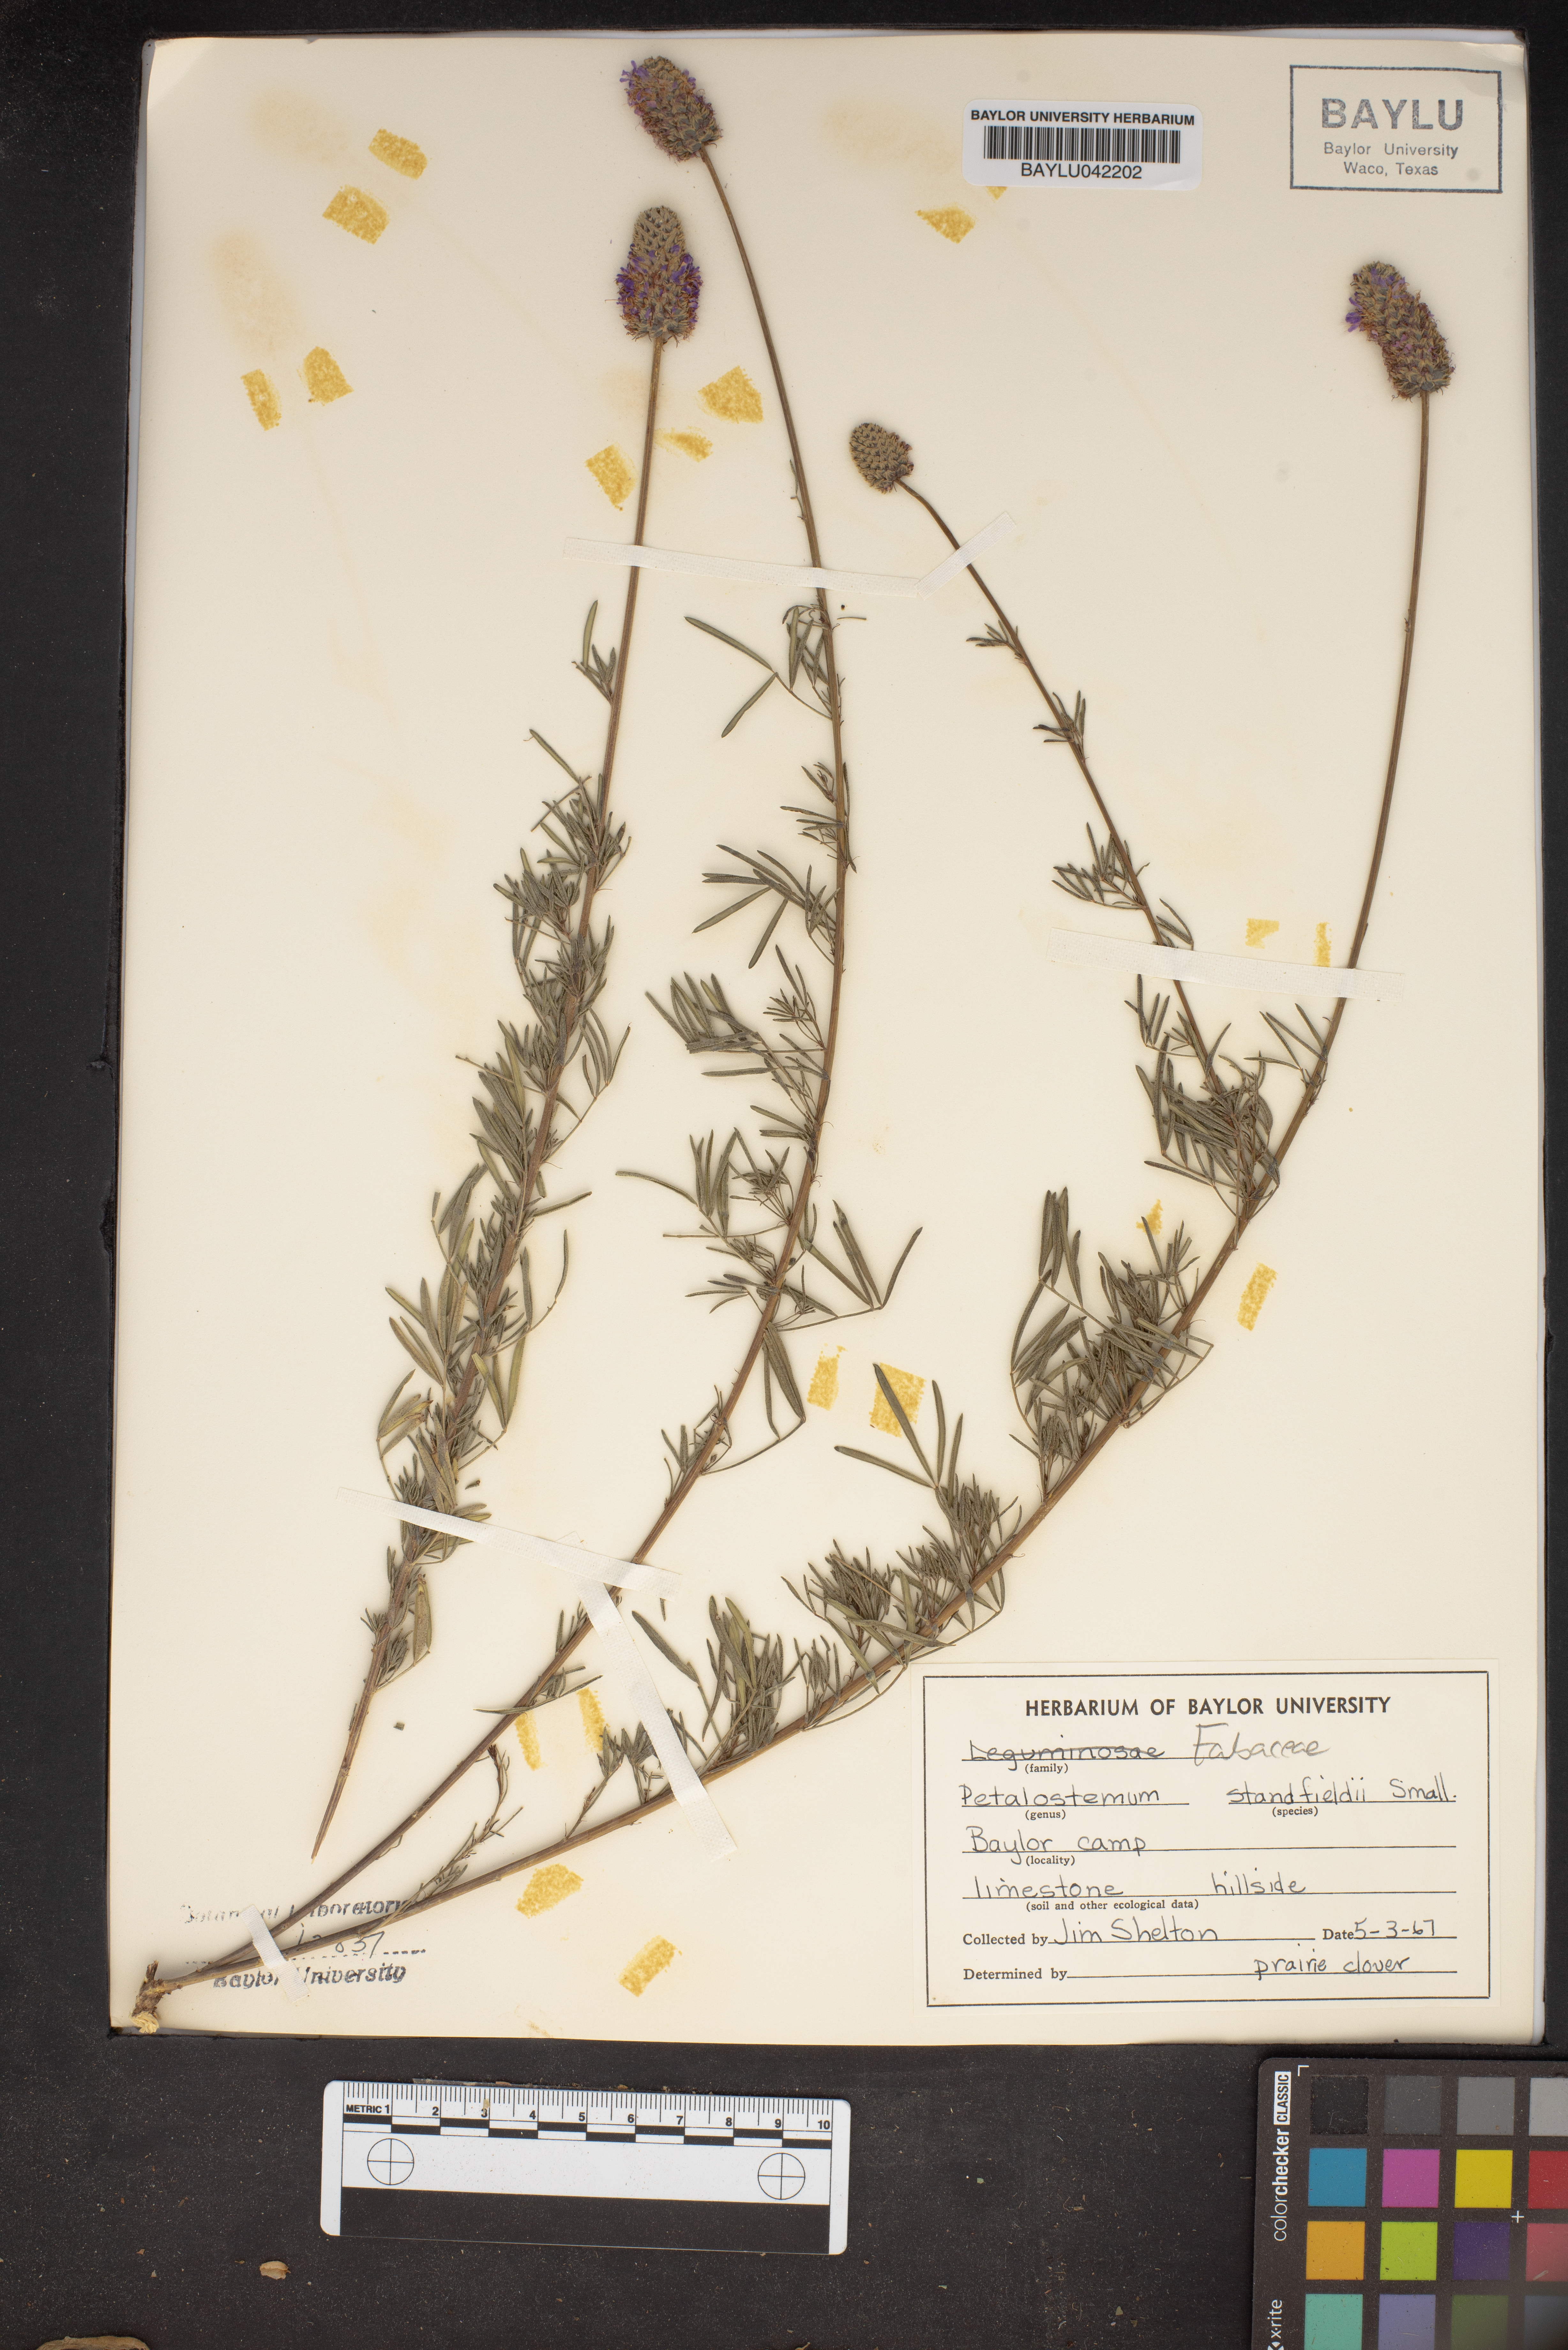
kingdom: Plantae
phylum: Tracheophyta
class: Magnoliopsida
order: Fabales
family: Fabaceae
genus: Dalea
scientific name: Dalea tenuis
